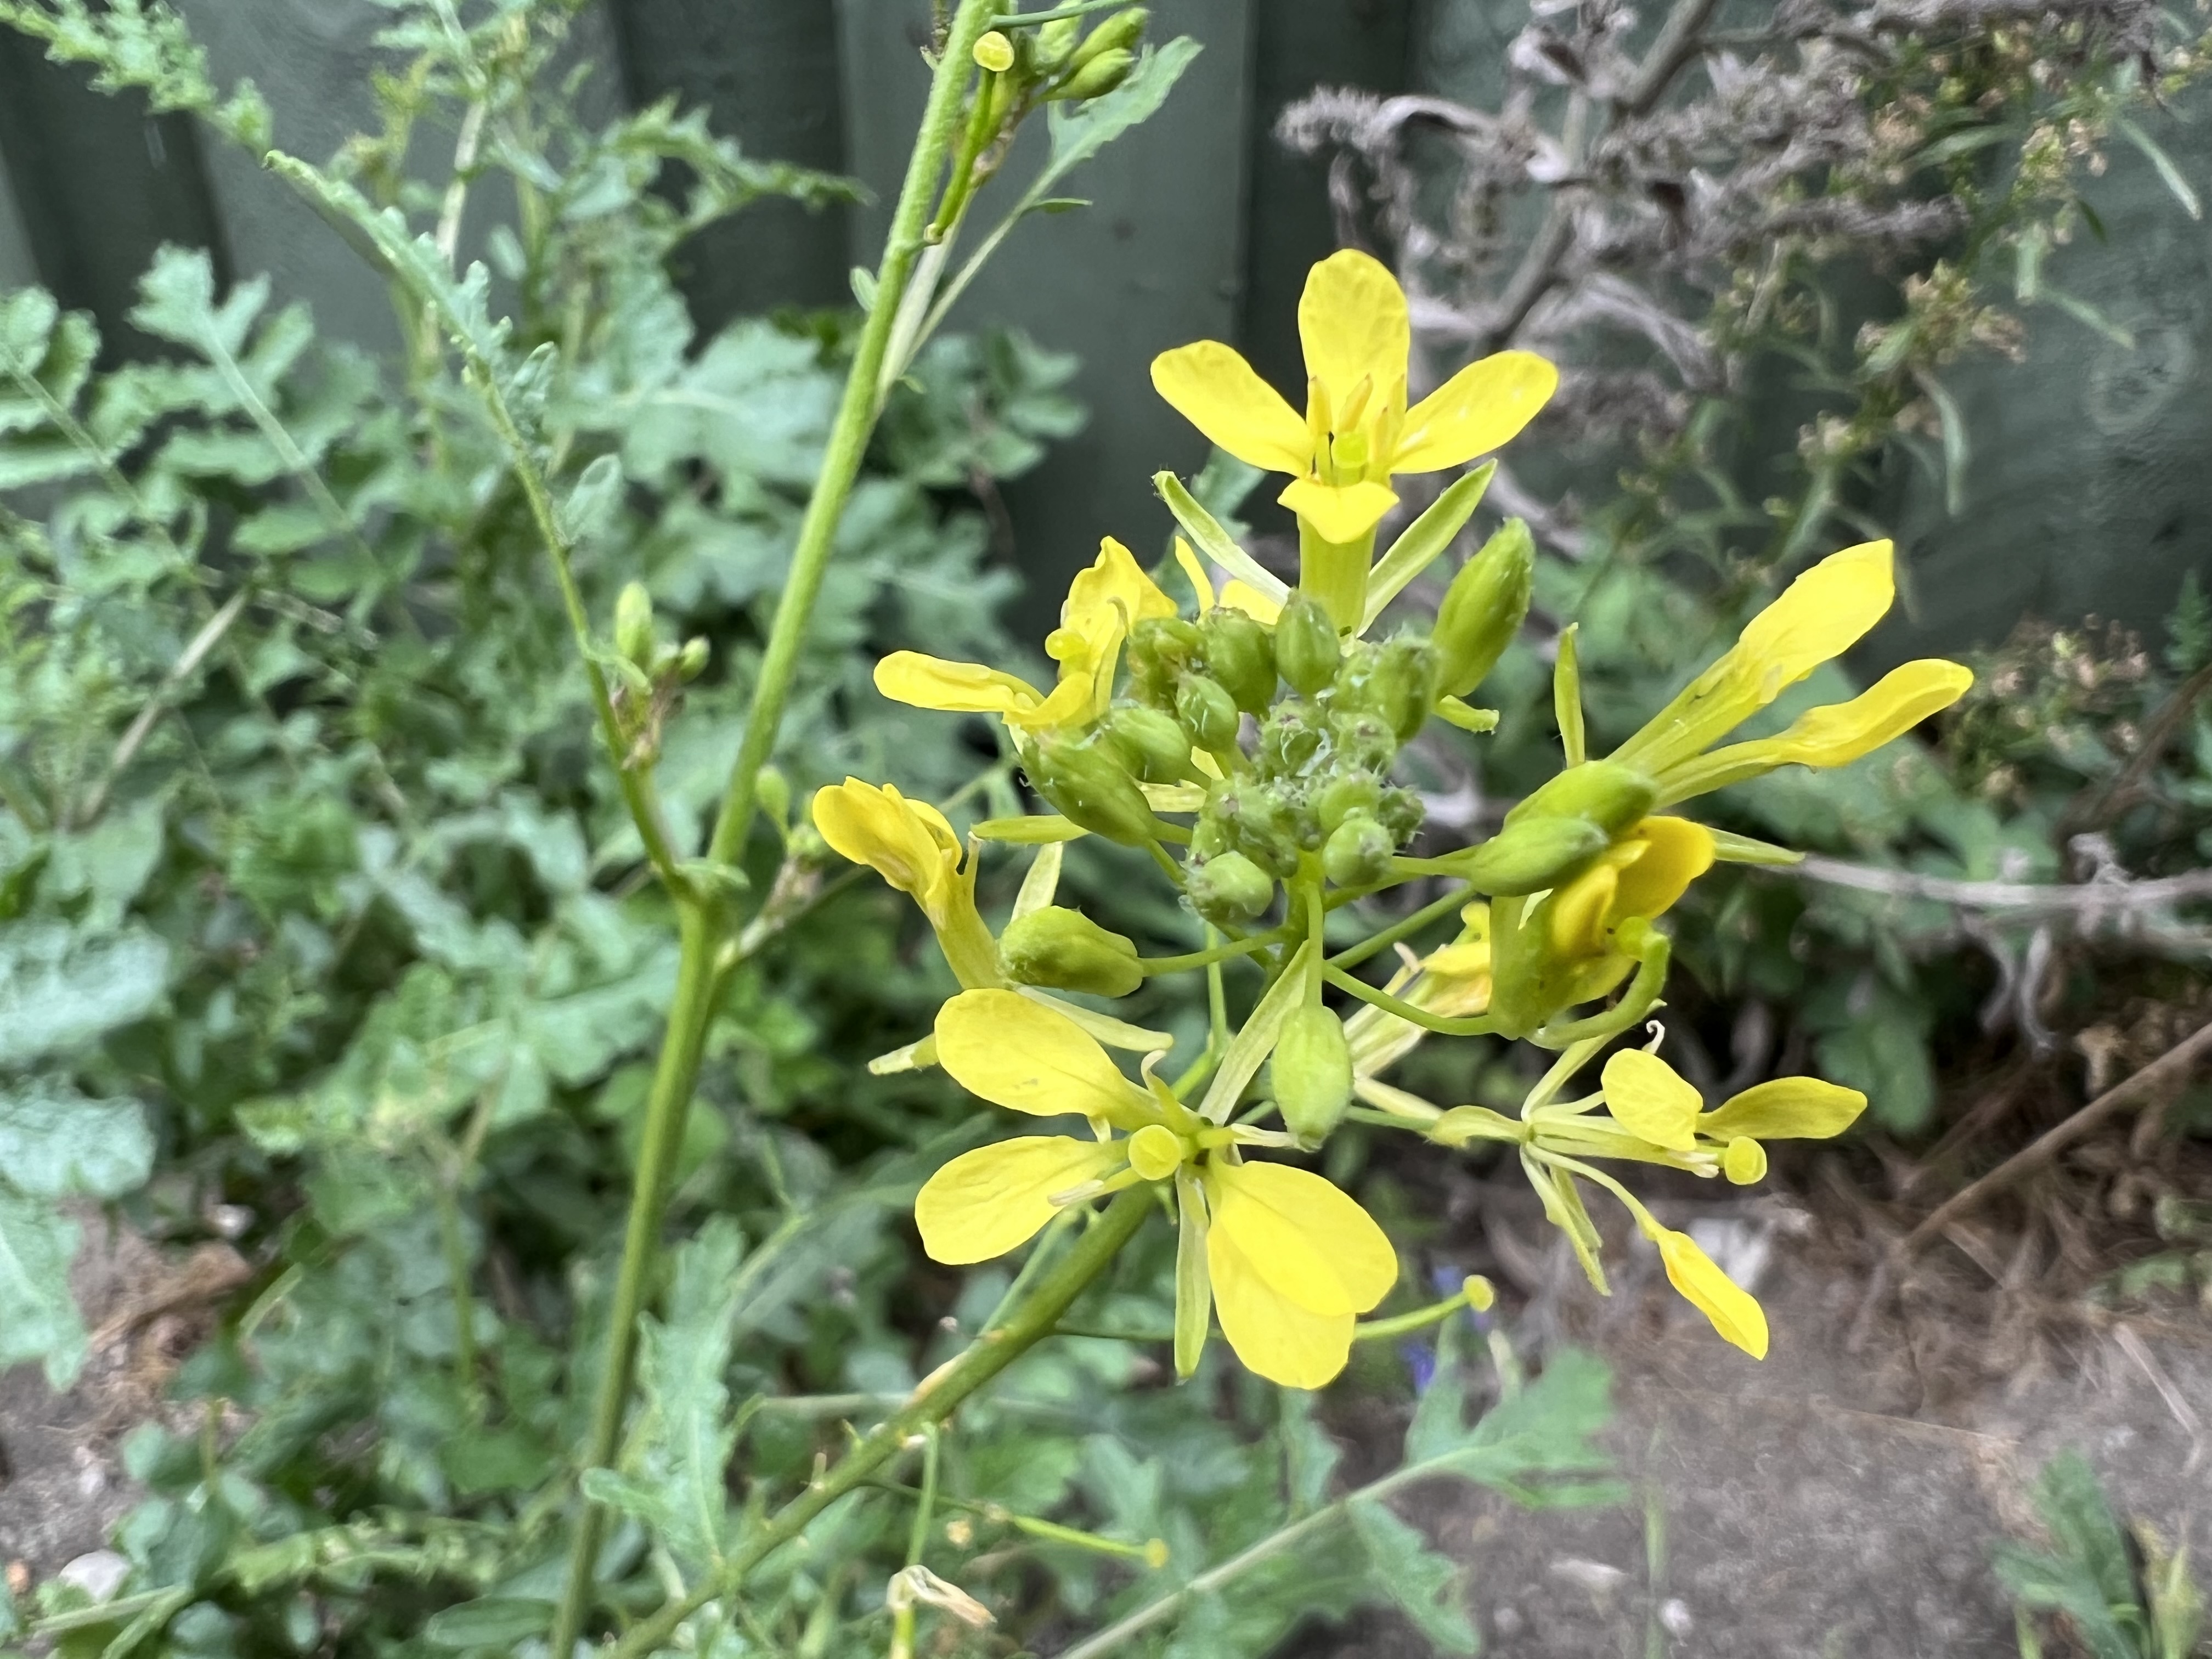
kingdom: Plantae
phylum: Tracheophyta
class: Magnoliopsida
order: Brassicales
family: Brassicaceae
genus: Erucastrum
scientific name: Erucastrum nasturtiifolium
